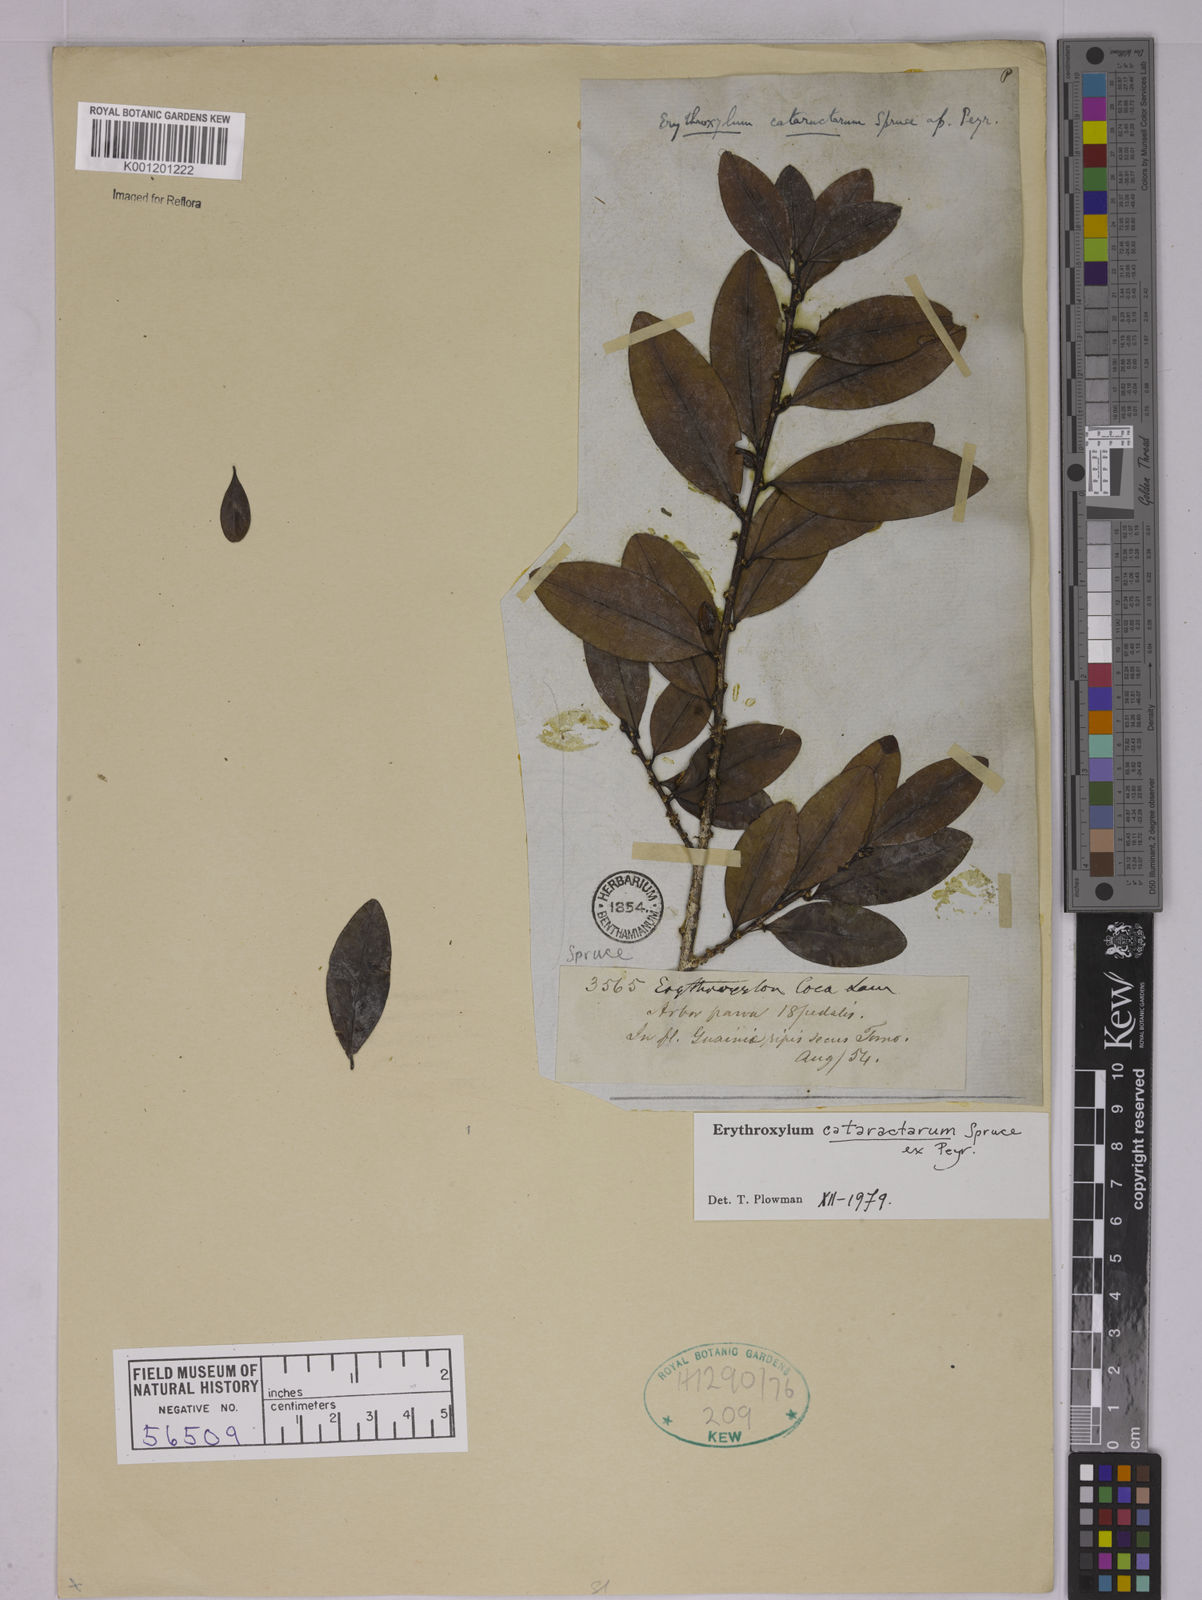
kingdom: Plantae
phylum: Tracheophyta
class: Magnoliopsida
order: Malpighiales
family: Erythroxylaceae
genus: Erythroxylum
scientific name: Erythroxylum cataractarum
